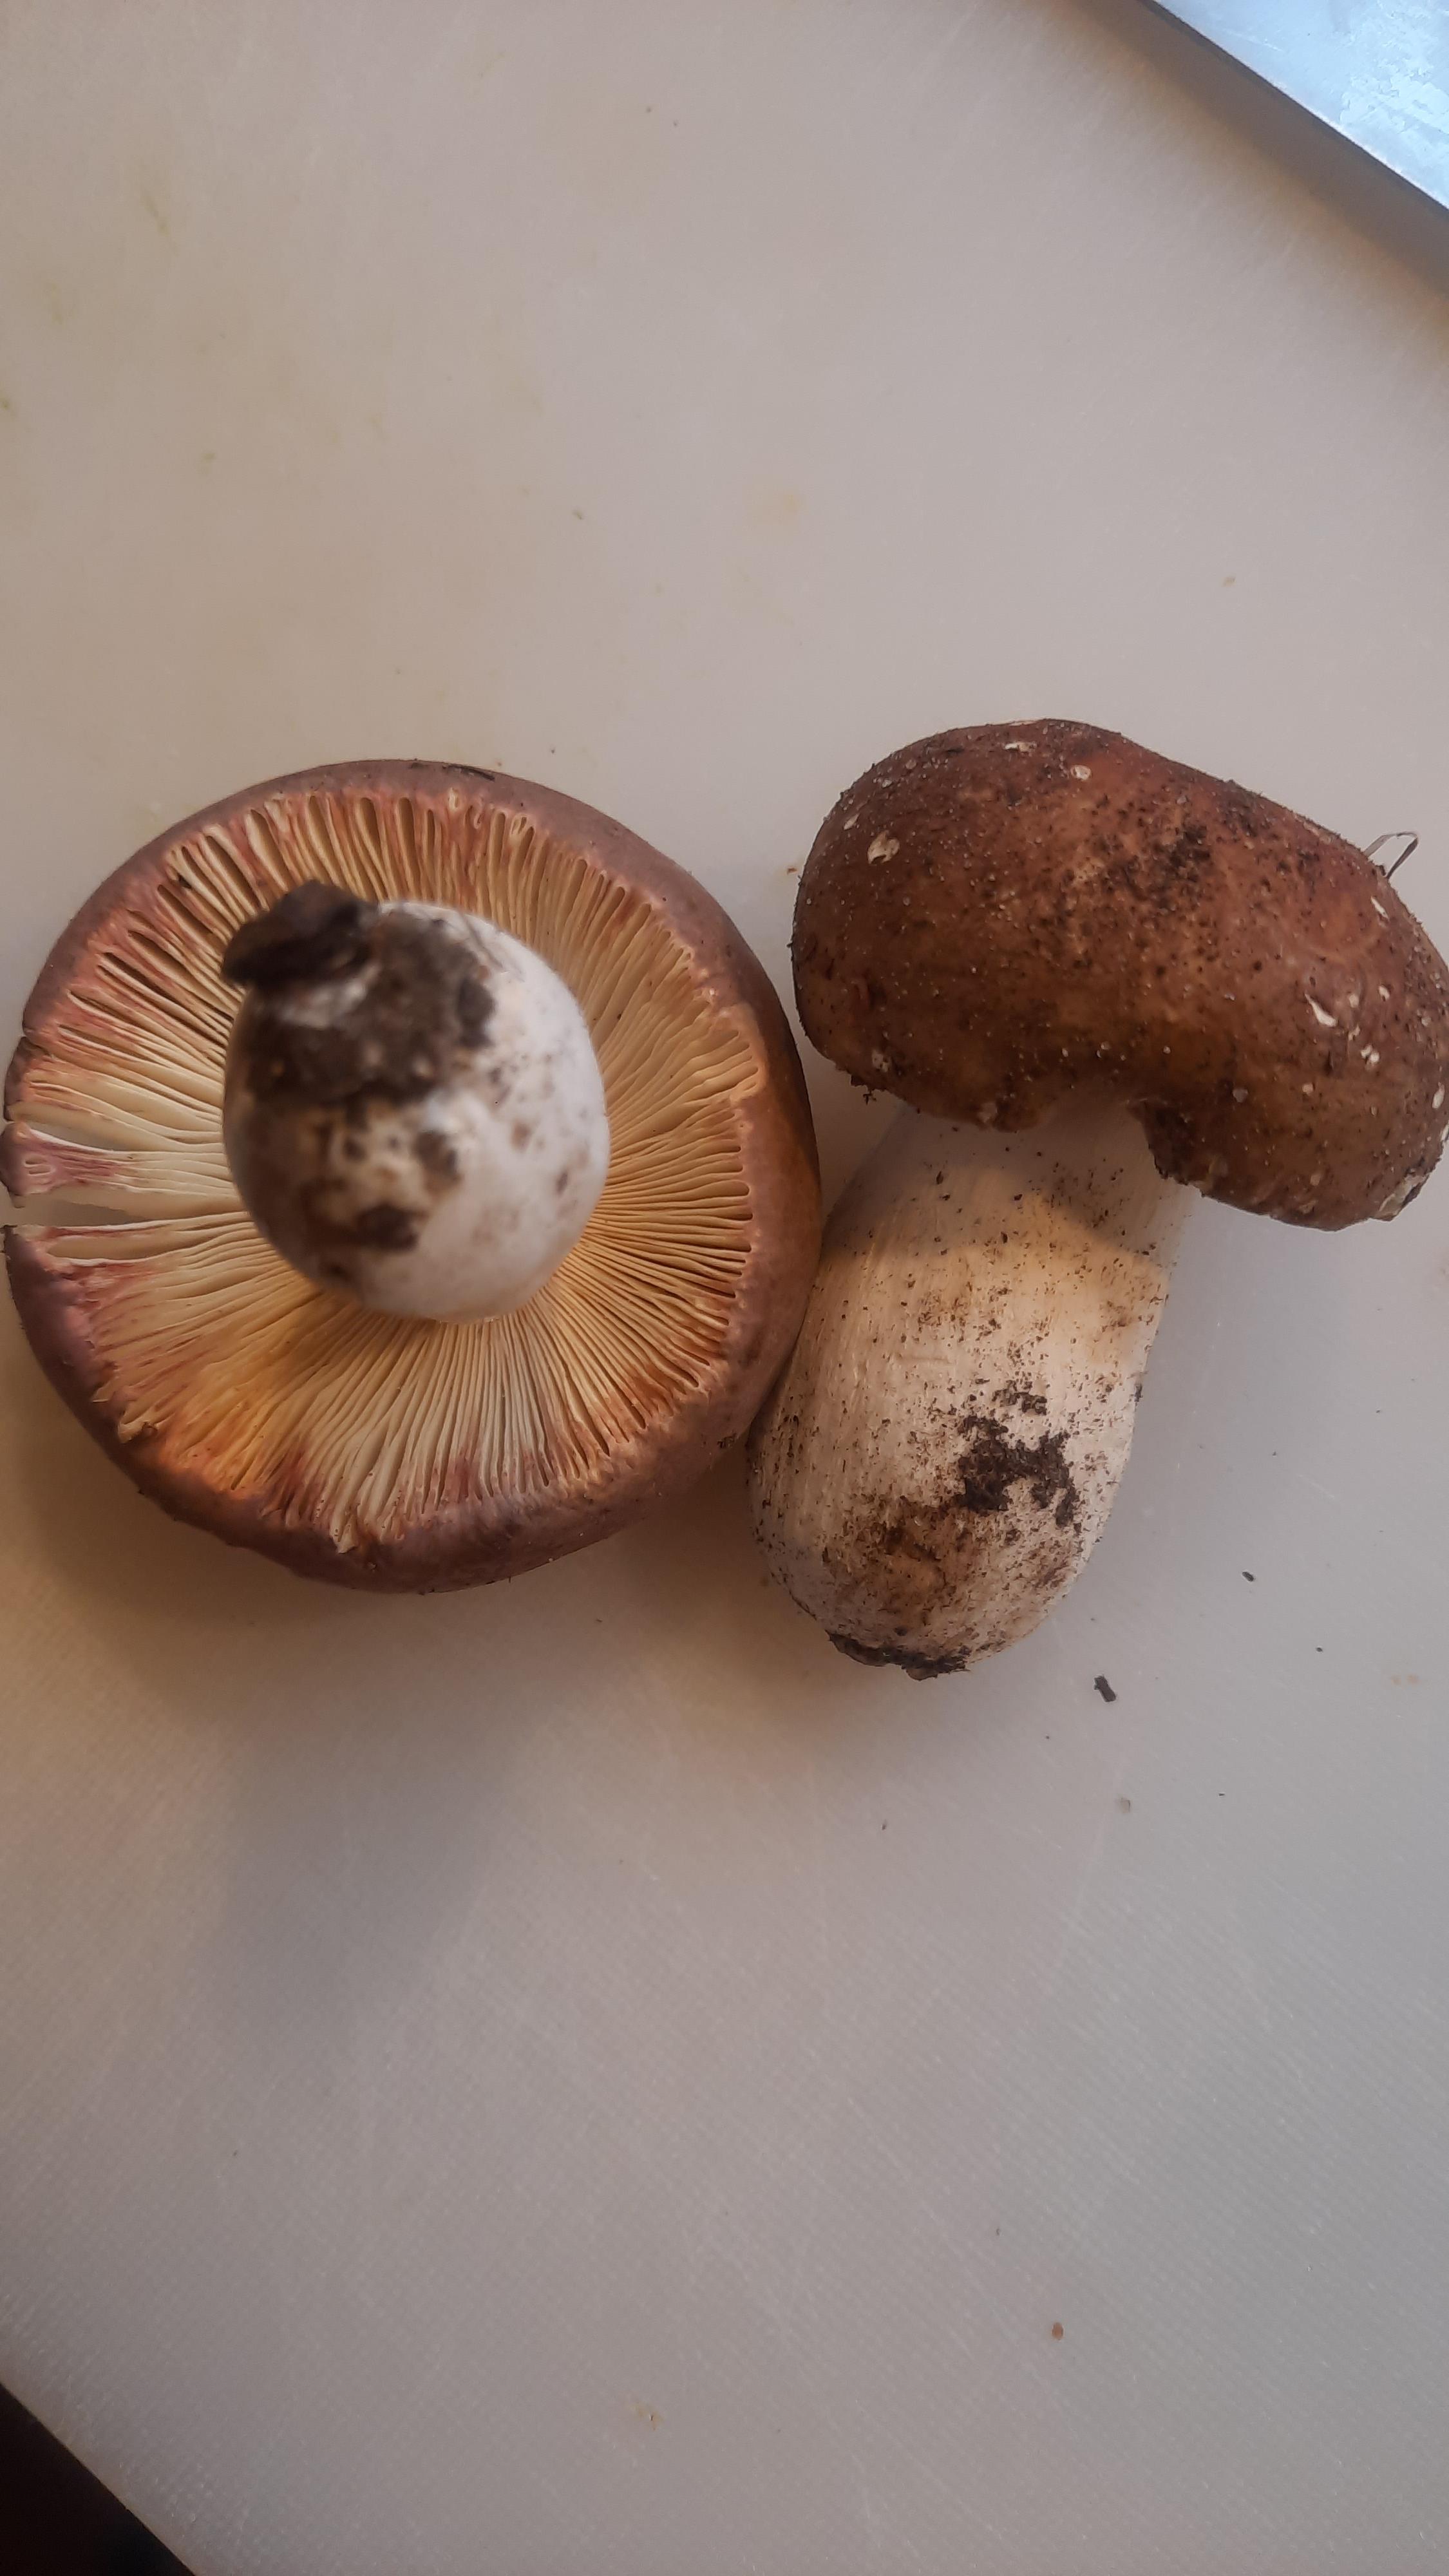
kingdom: Fungi
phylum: Basidiomycota
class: Agaricomycetes
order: Russulales
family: Russulaceae
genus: Russula
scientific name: Russula olivacea
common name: stor skørhat
